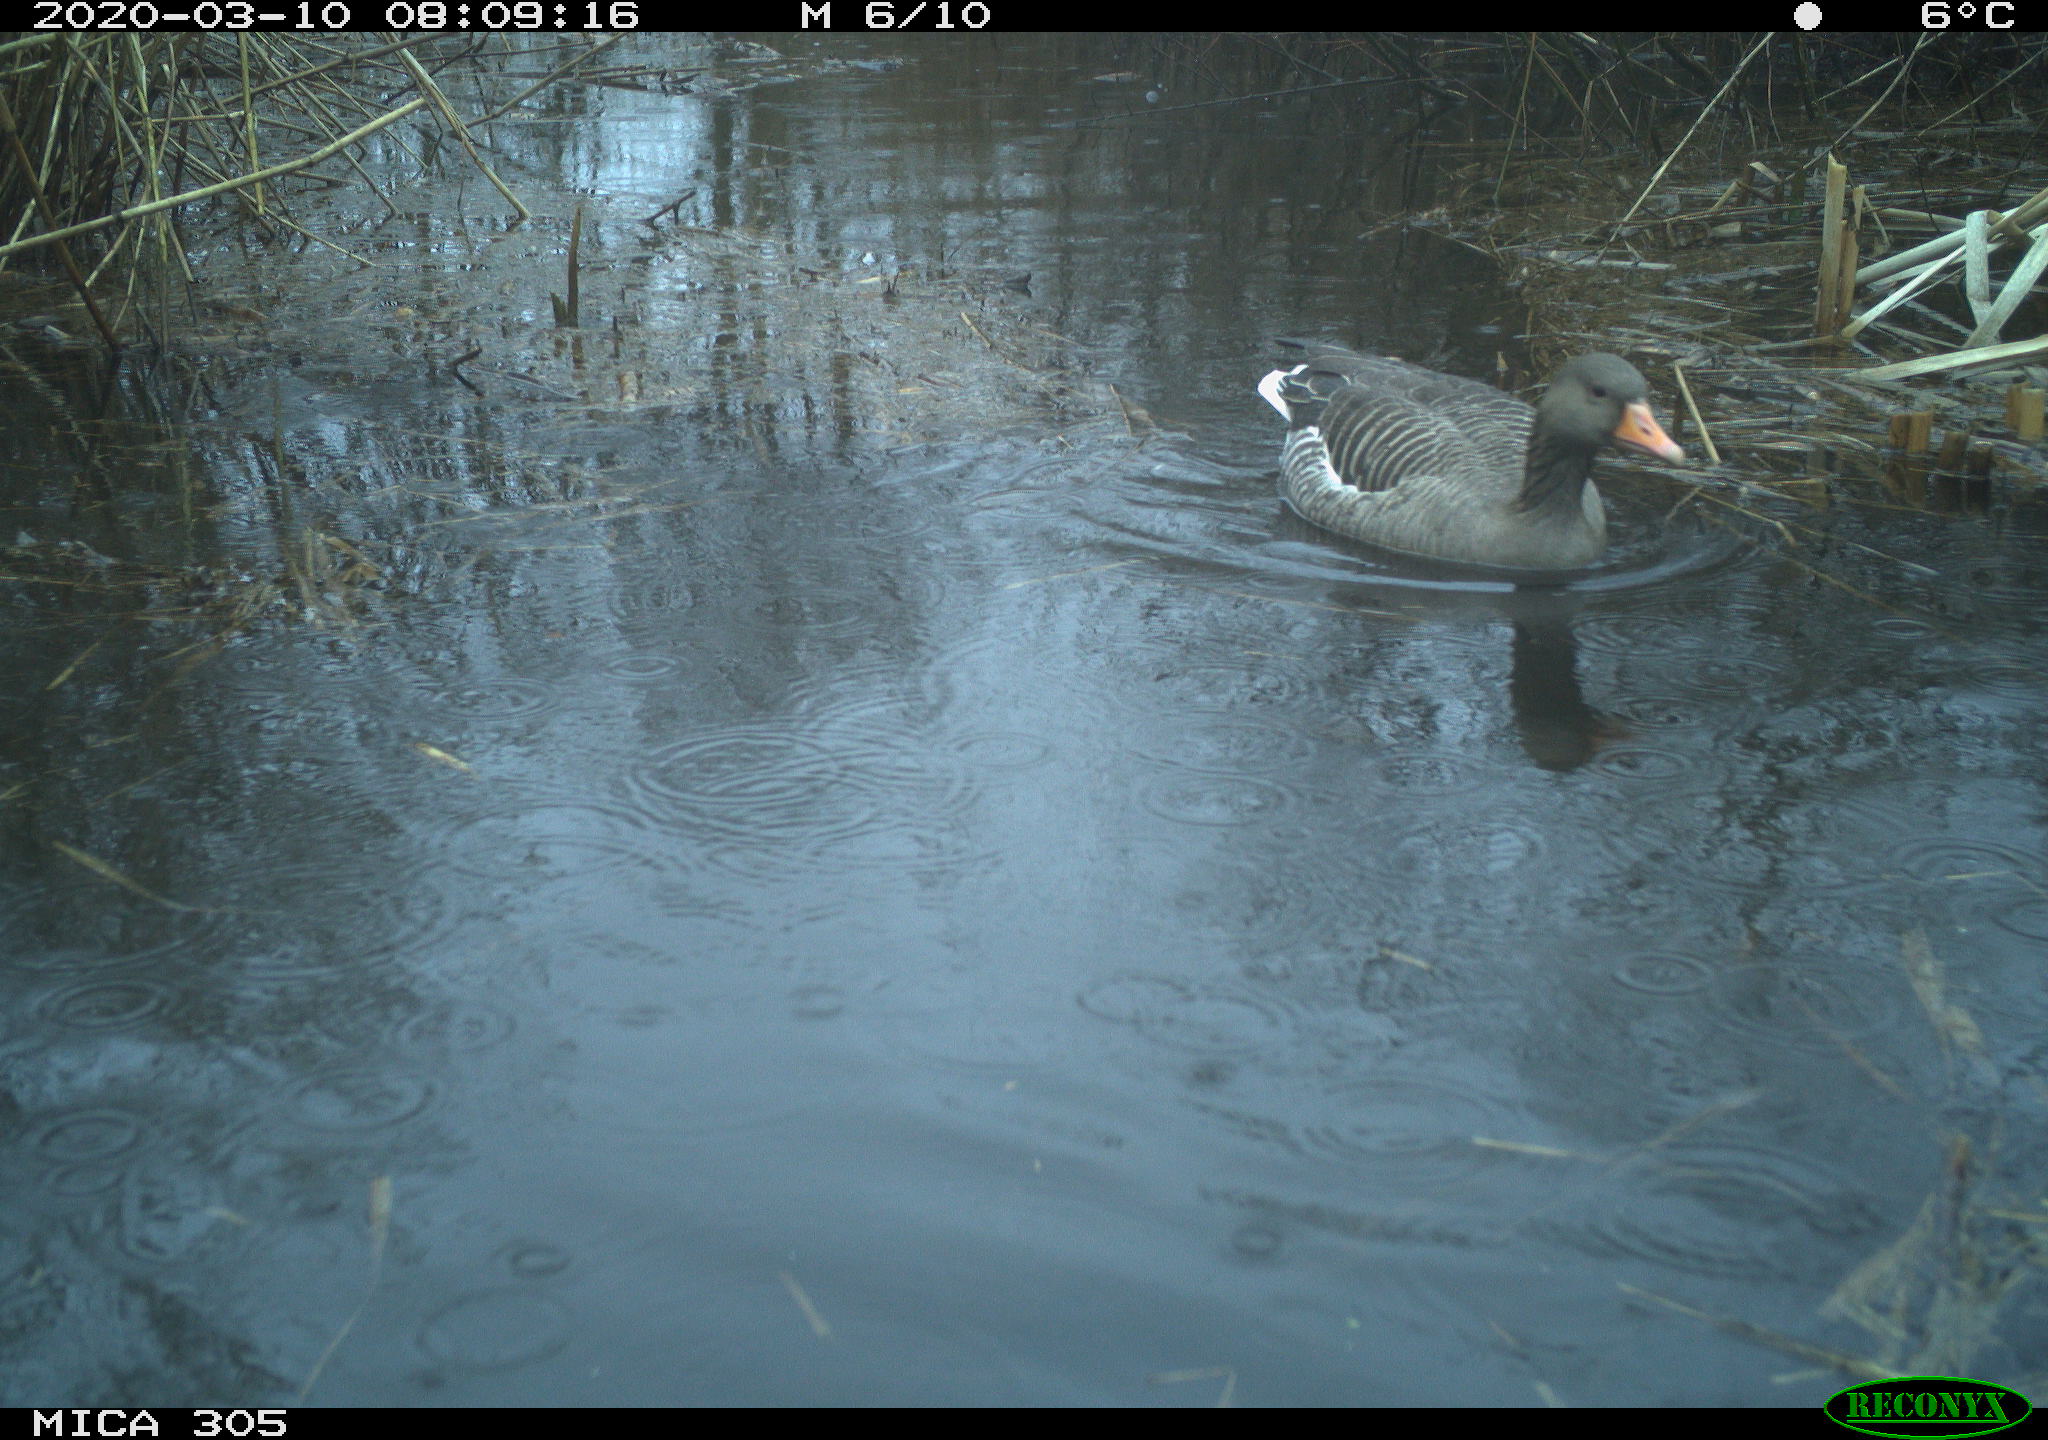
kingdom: Animalia
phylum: Chordata
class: Aves
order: Anseriformes
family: Anatidae
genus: Anser
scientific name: Anser anser
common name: Greylag goose
